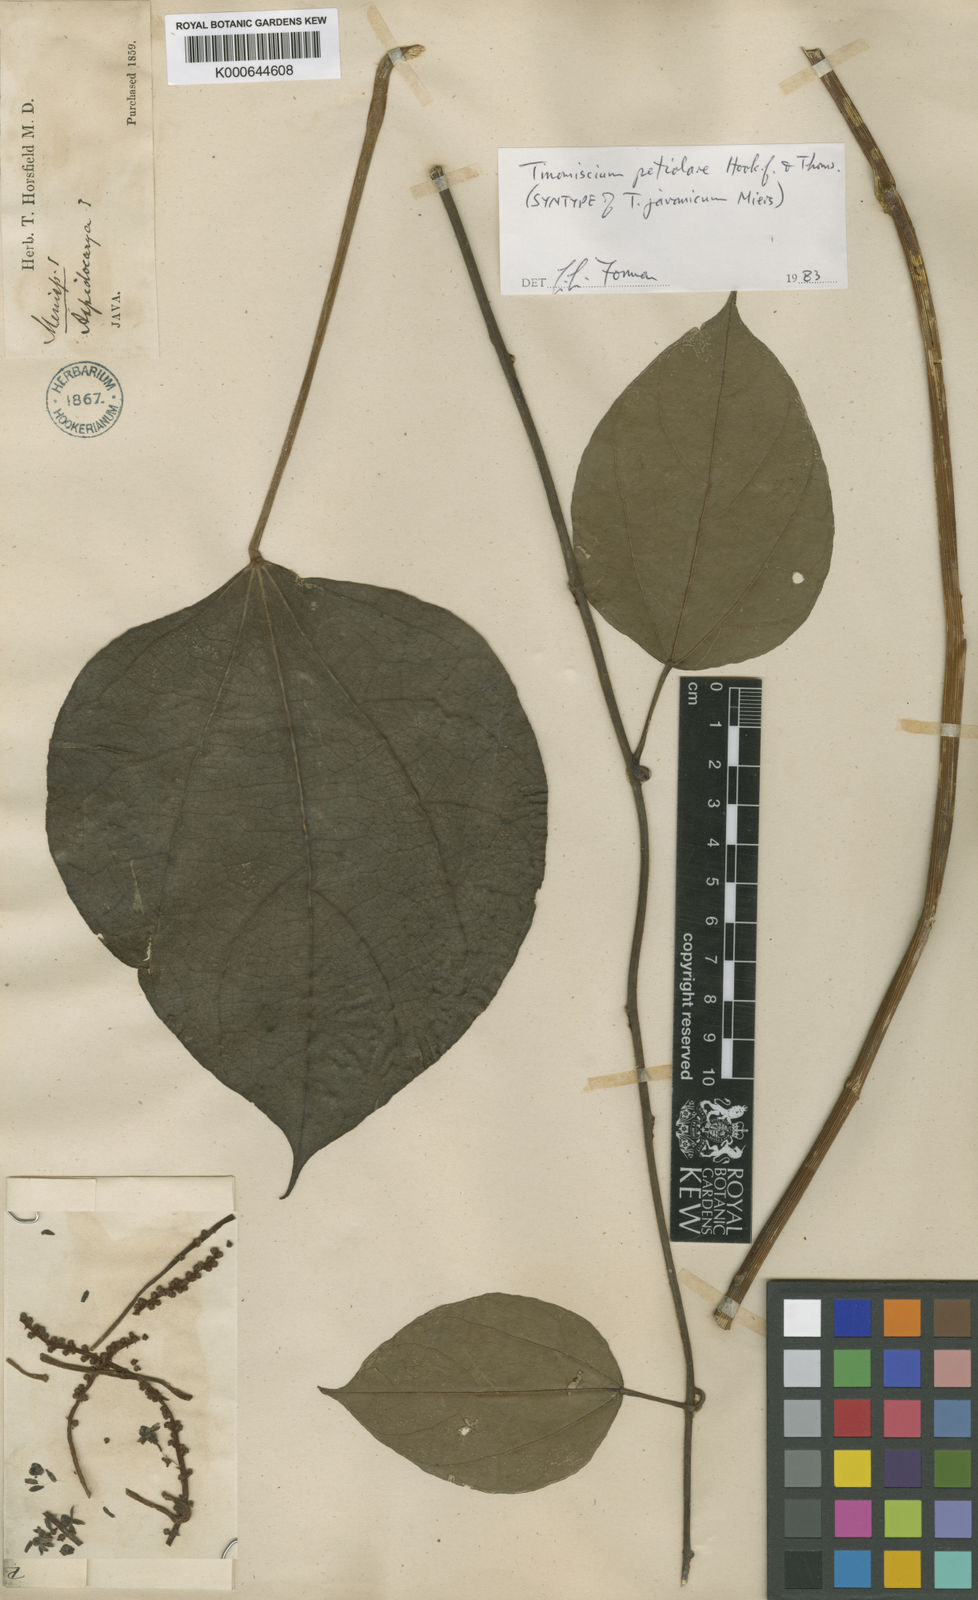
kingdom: Plantae
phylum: Tracheophyta
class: Magnoliopsida
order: Ranunculales
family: Menispermaceae
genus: Tinomiscium
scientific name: Tinomiscium petiolare
